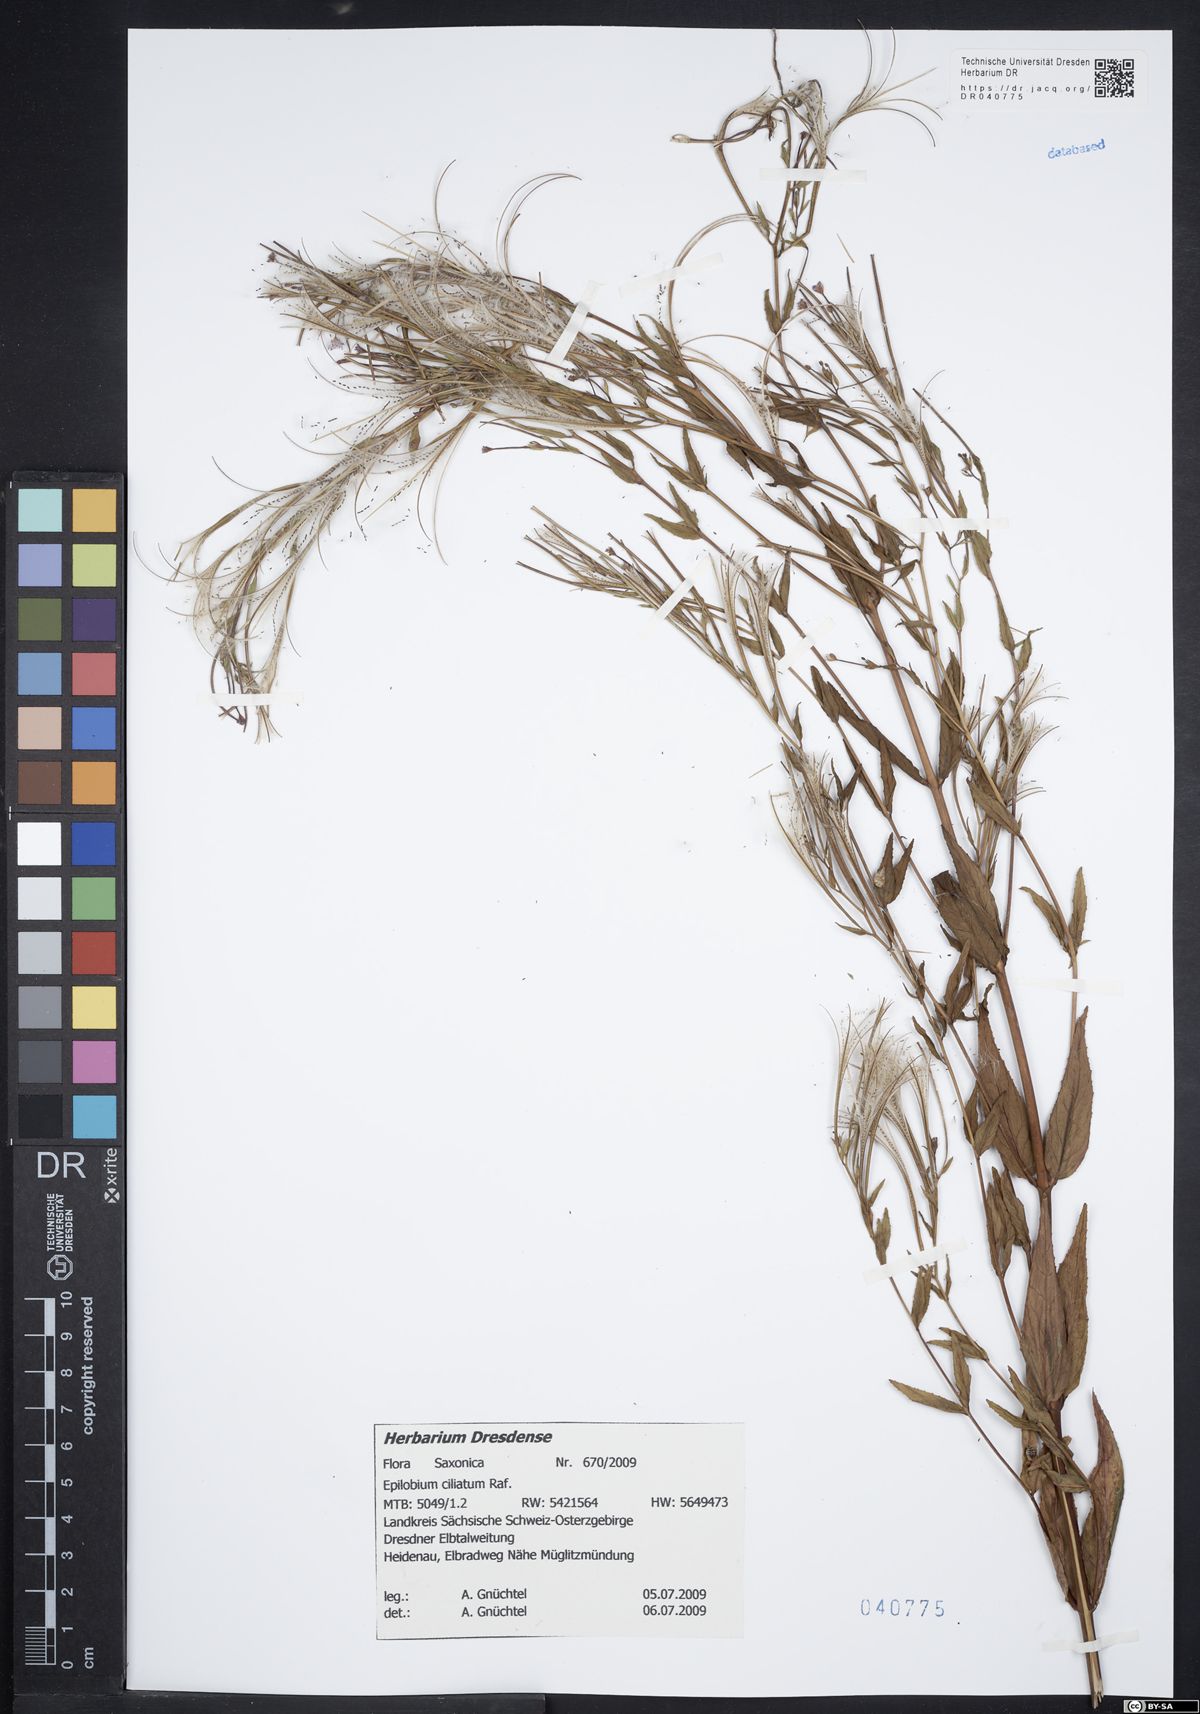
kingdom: Plantae
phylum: Tracheophyta
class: Magnoliopsida
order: Myrtales
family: Onagraceae
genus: Epilobium
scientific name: Epilobium ciliatum
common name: American willowherb
